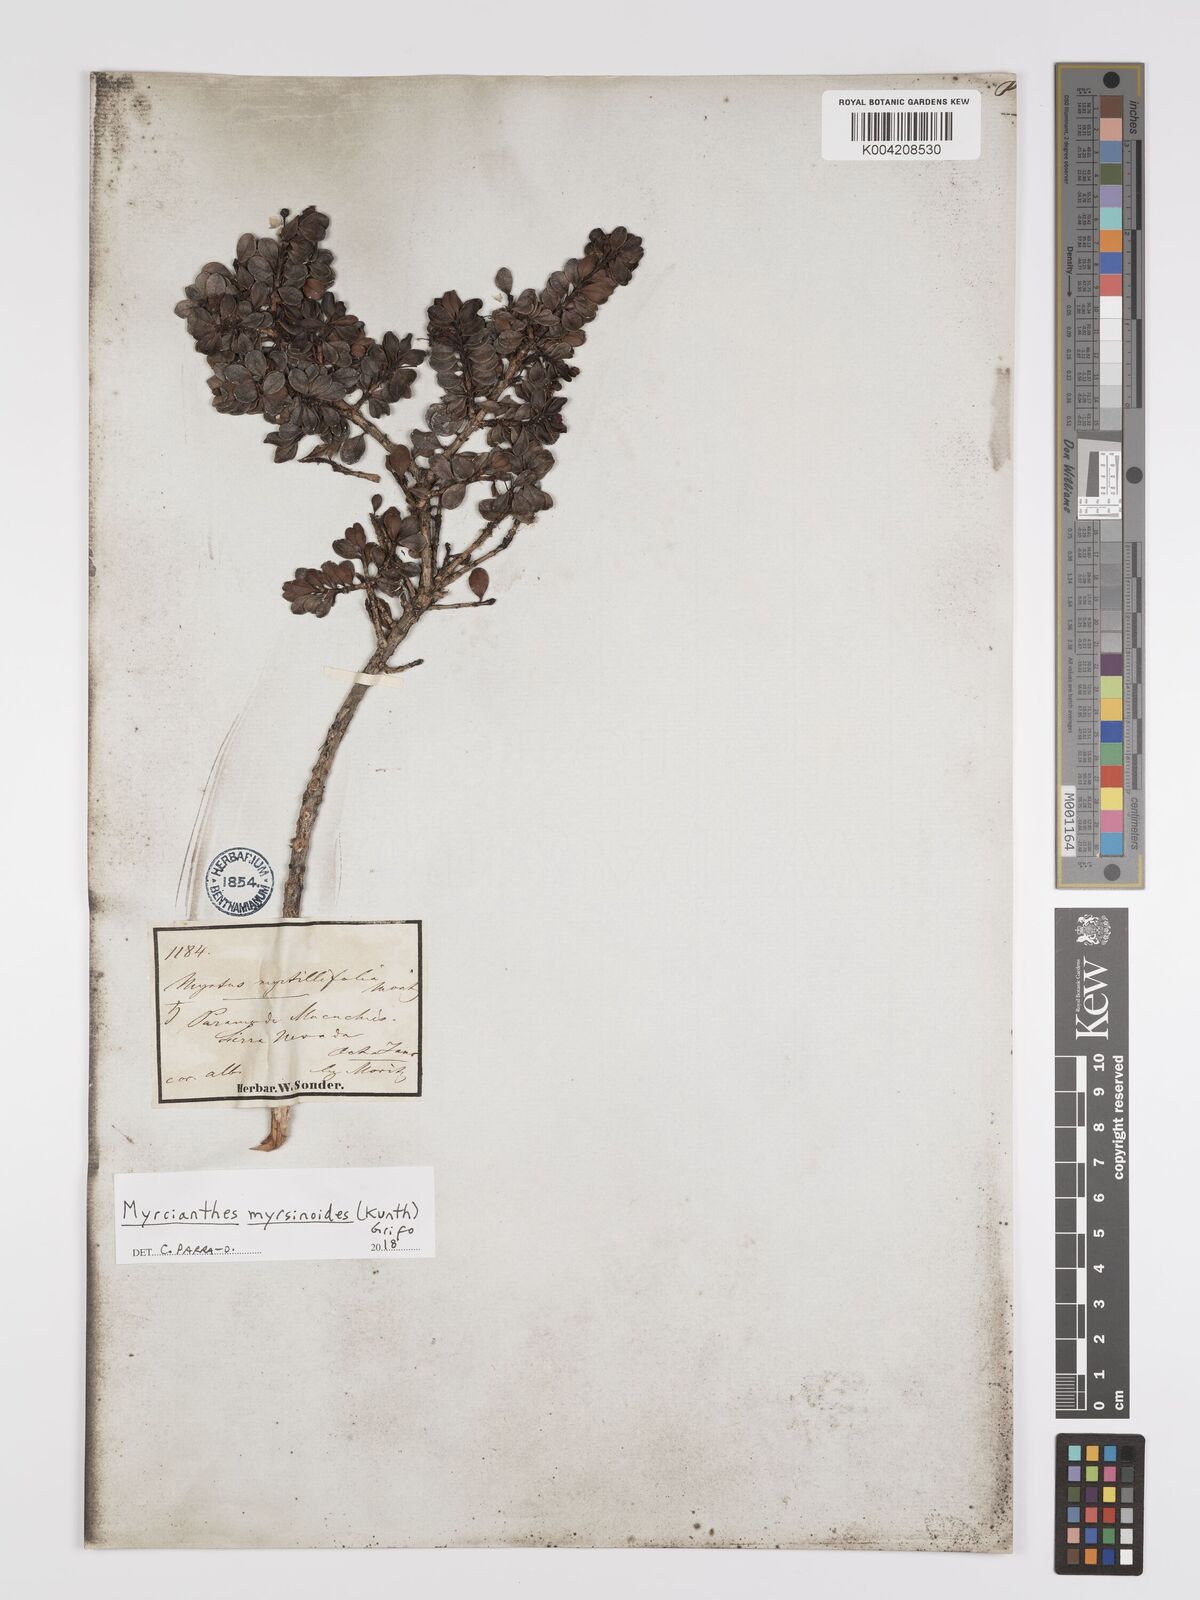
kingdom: Plantae
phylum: Tracheophyta
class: Magnoliopsida
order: Myrtales
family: Myrtaceae
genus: Myrcianthes
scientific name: Myrcianthes myrsinoides
